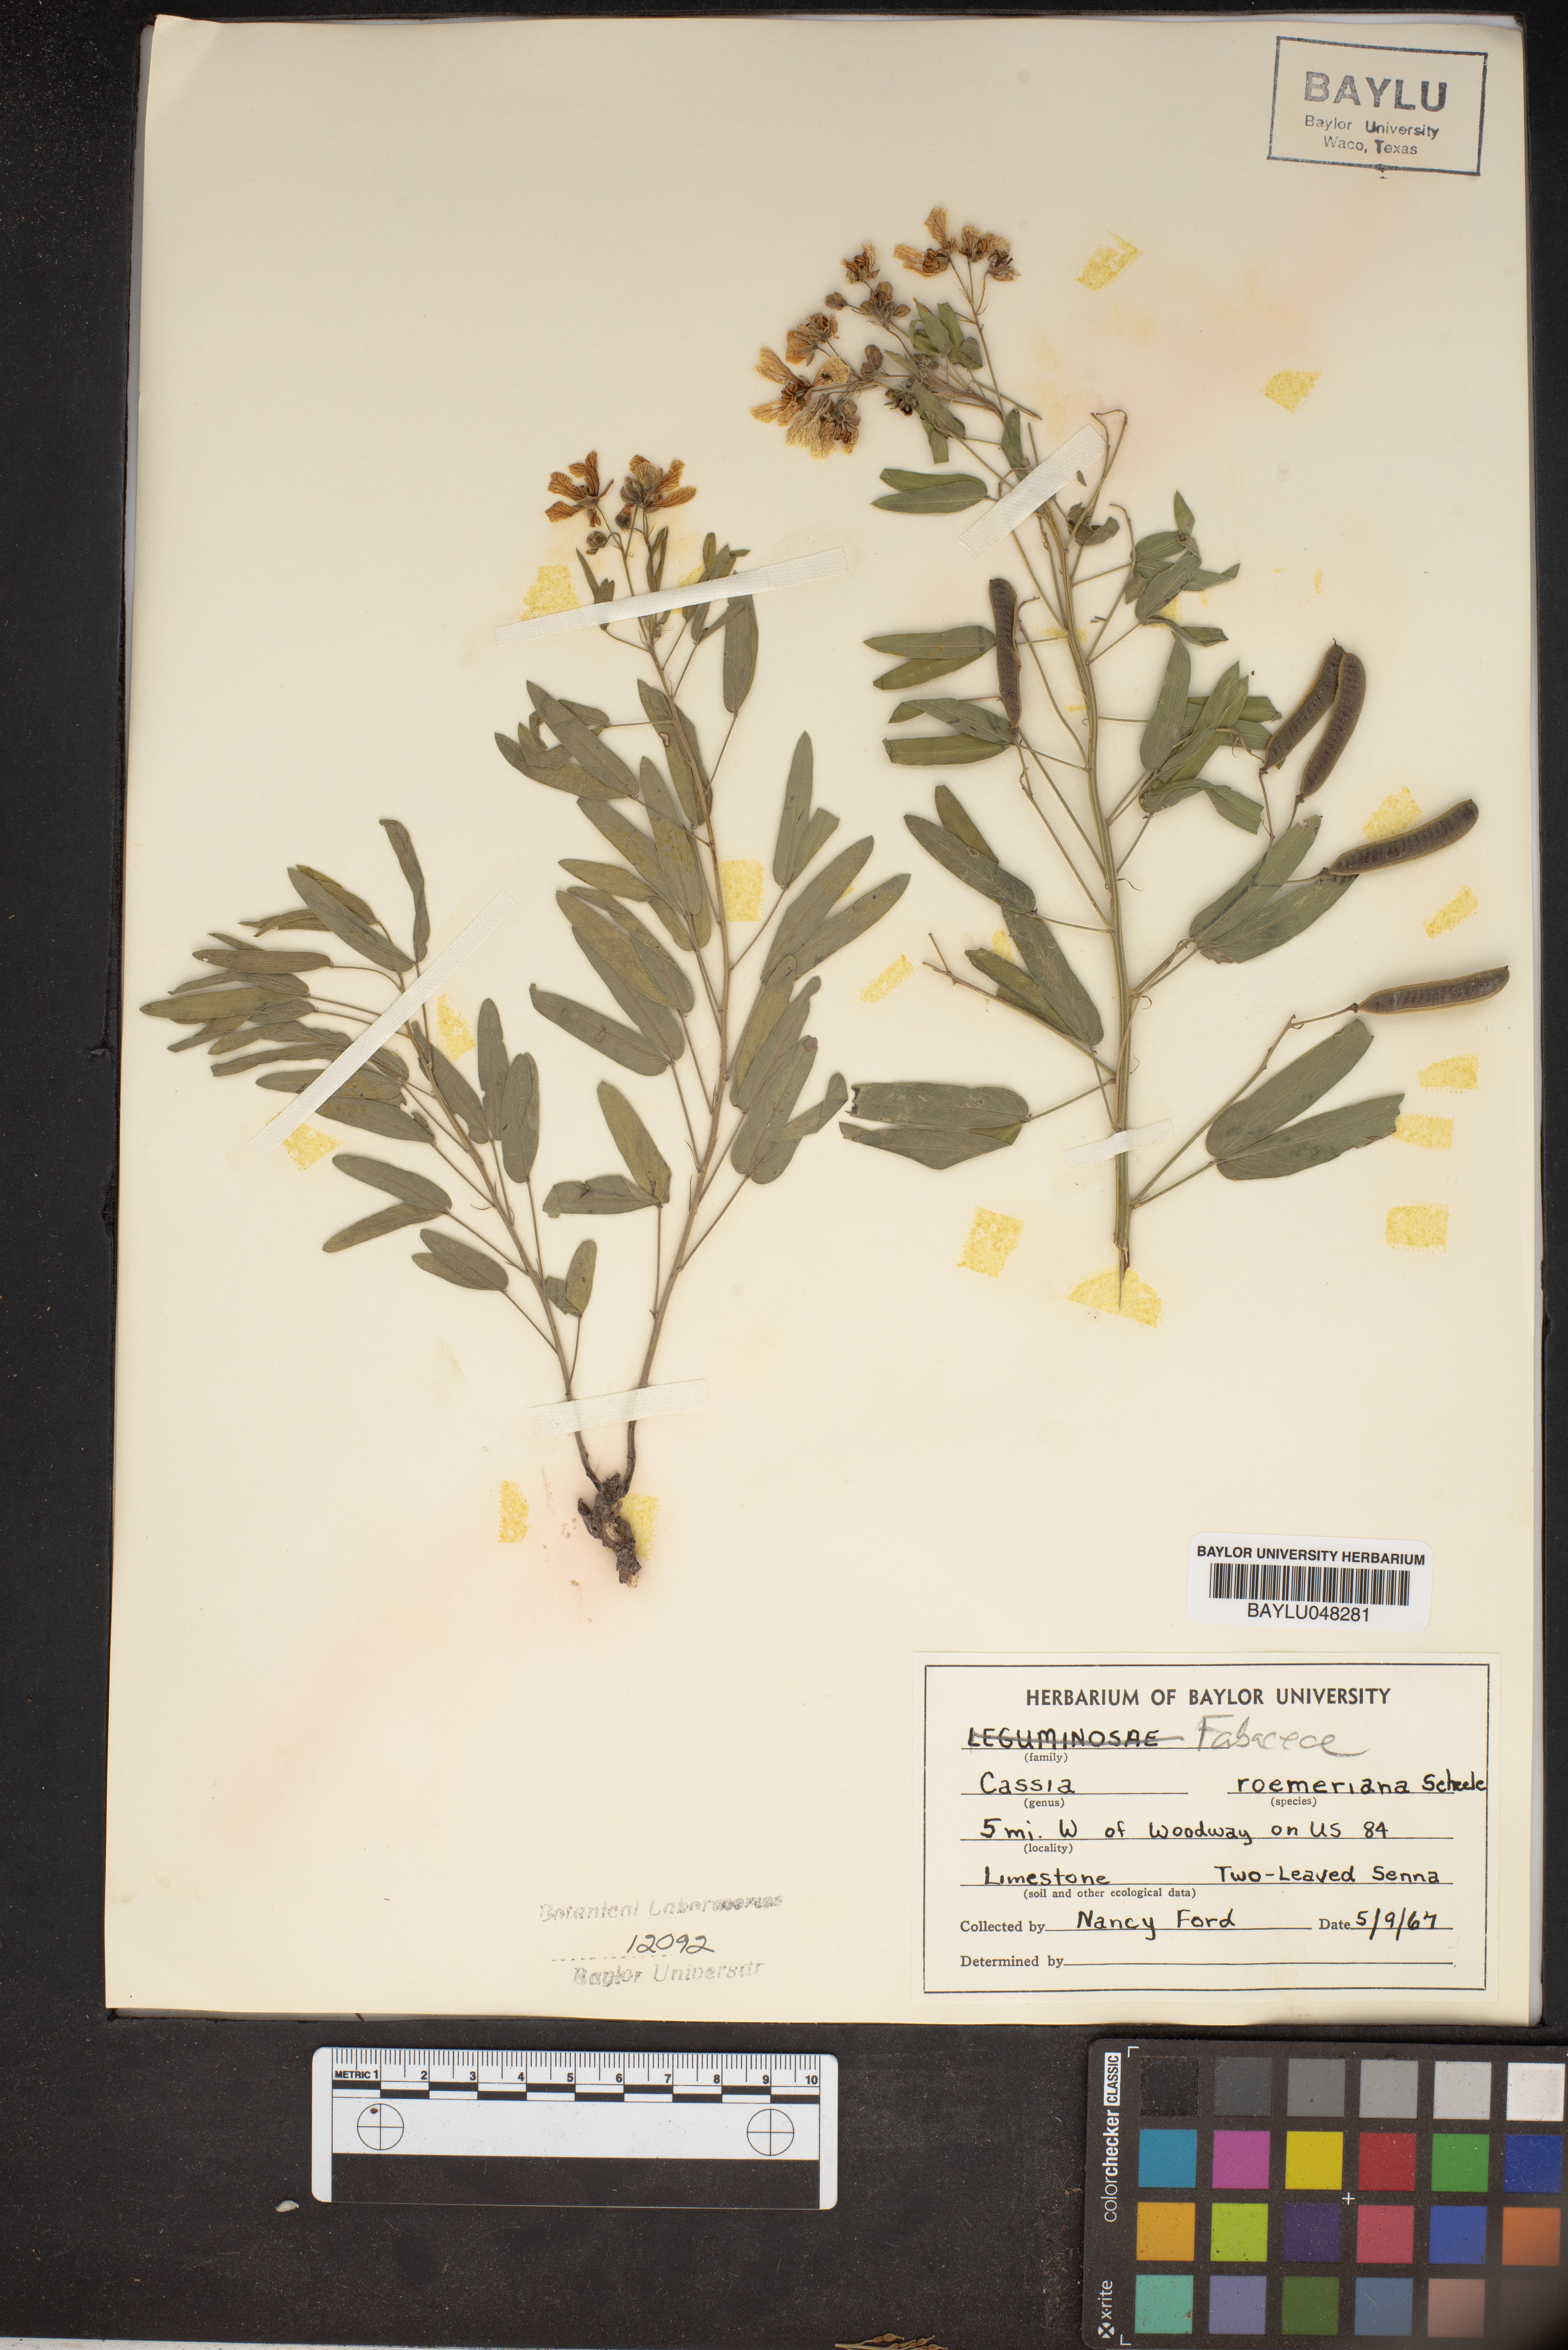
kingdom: Plantae
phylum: Tracheophyta
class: Magnoliopsida
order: Fabales
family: Fabaceae
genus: Senna
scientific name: Senna roemeriana
